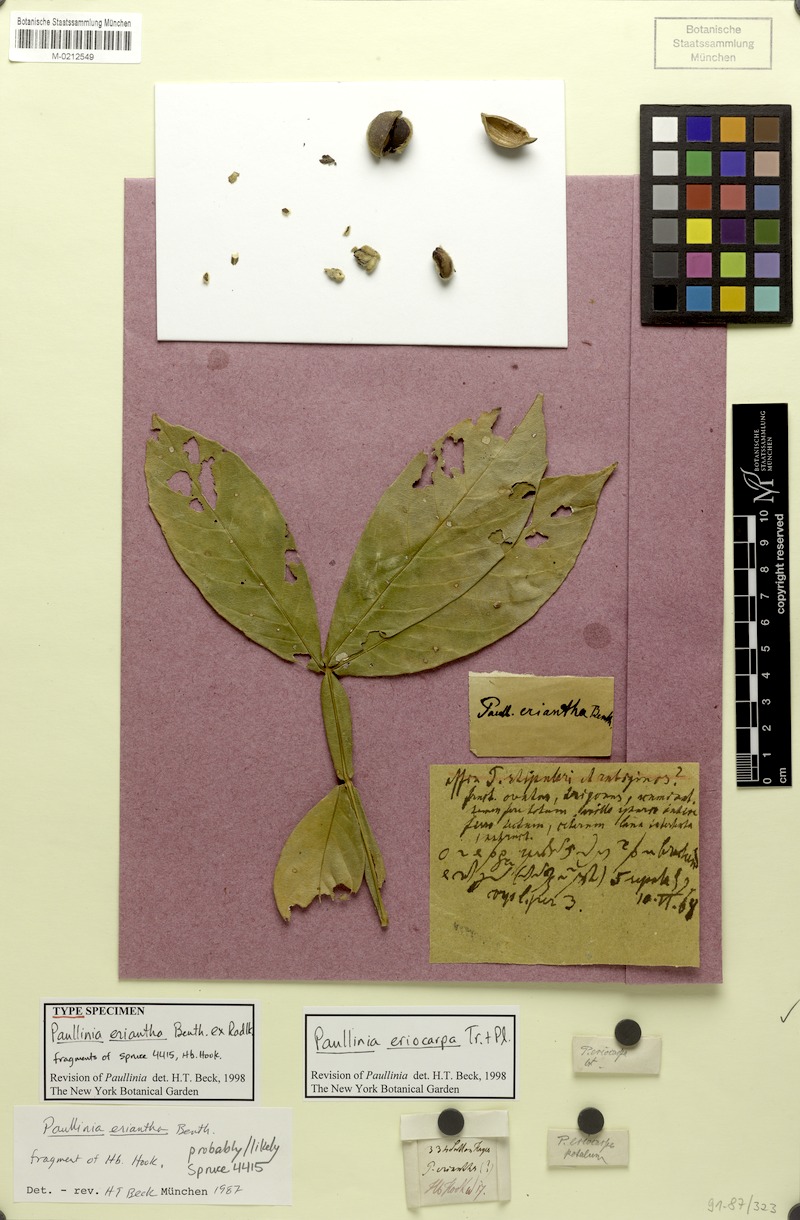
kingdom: Plantae
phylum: Tracheophyta
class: Magnoliopsida
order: Sapindales
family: Sapindaceae
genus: Paullinia
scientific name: Paullinia eriocarpa
